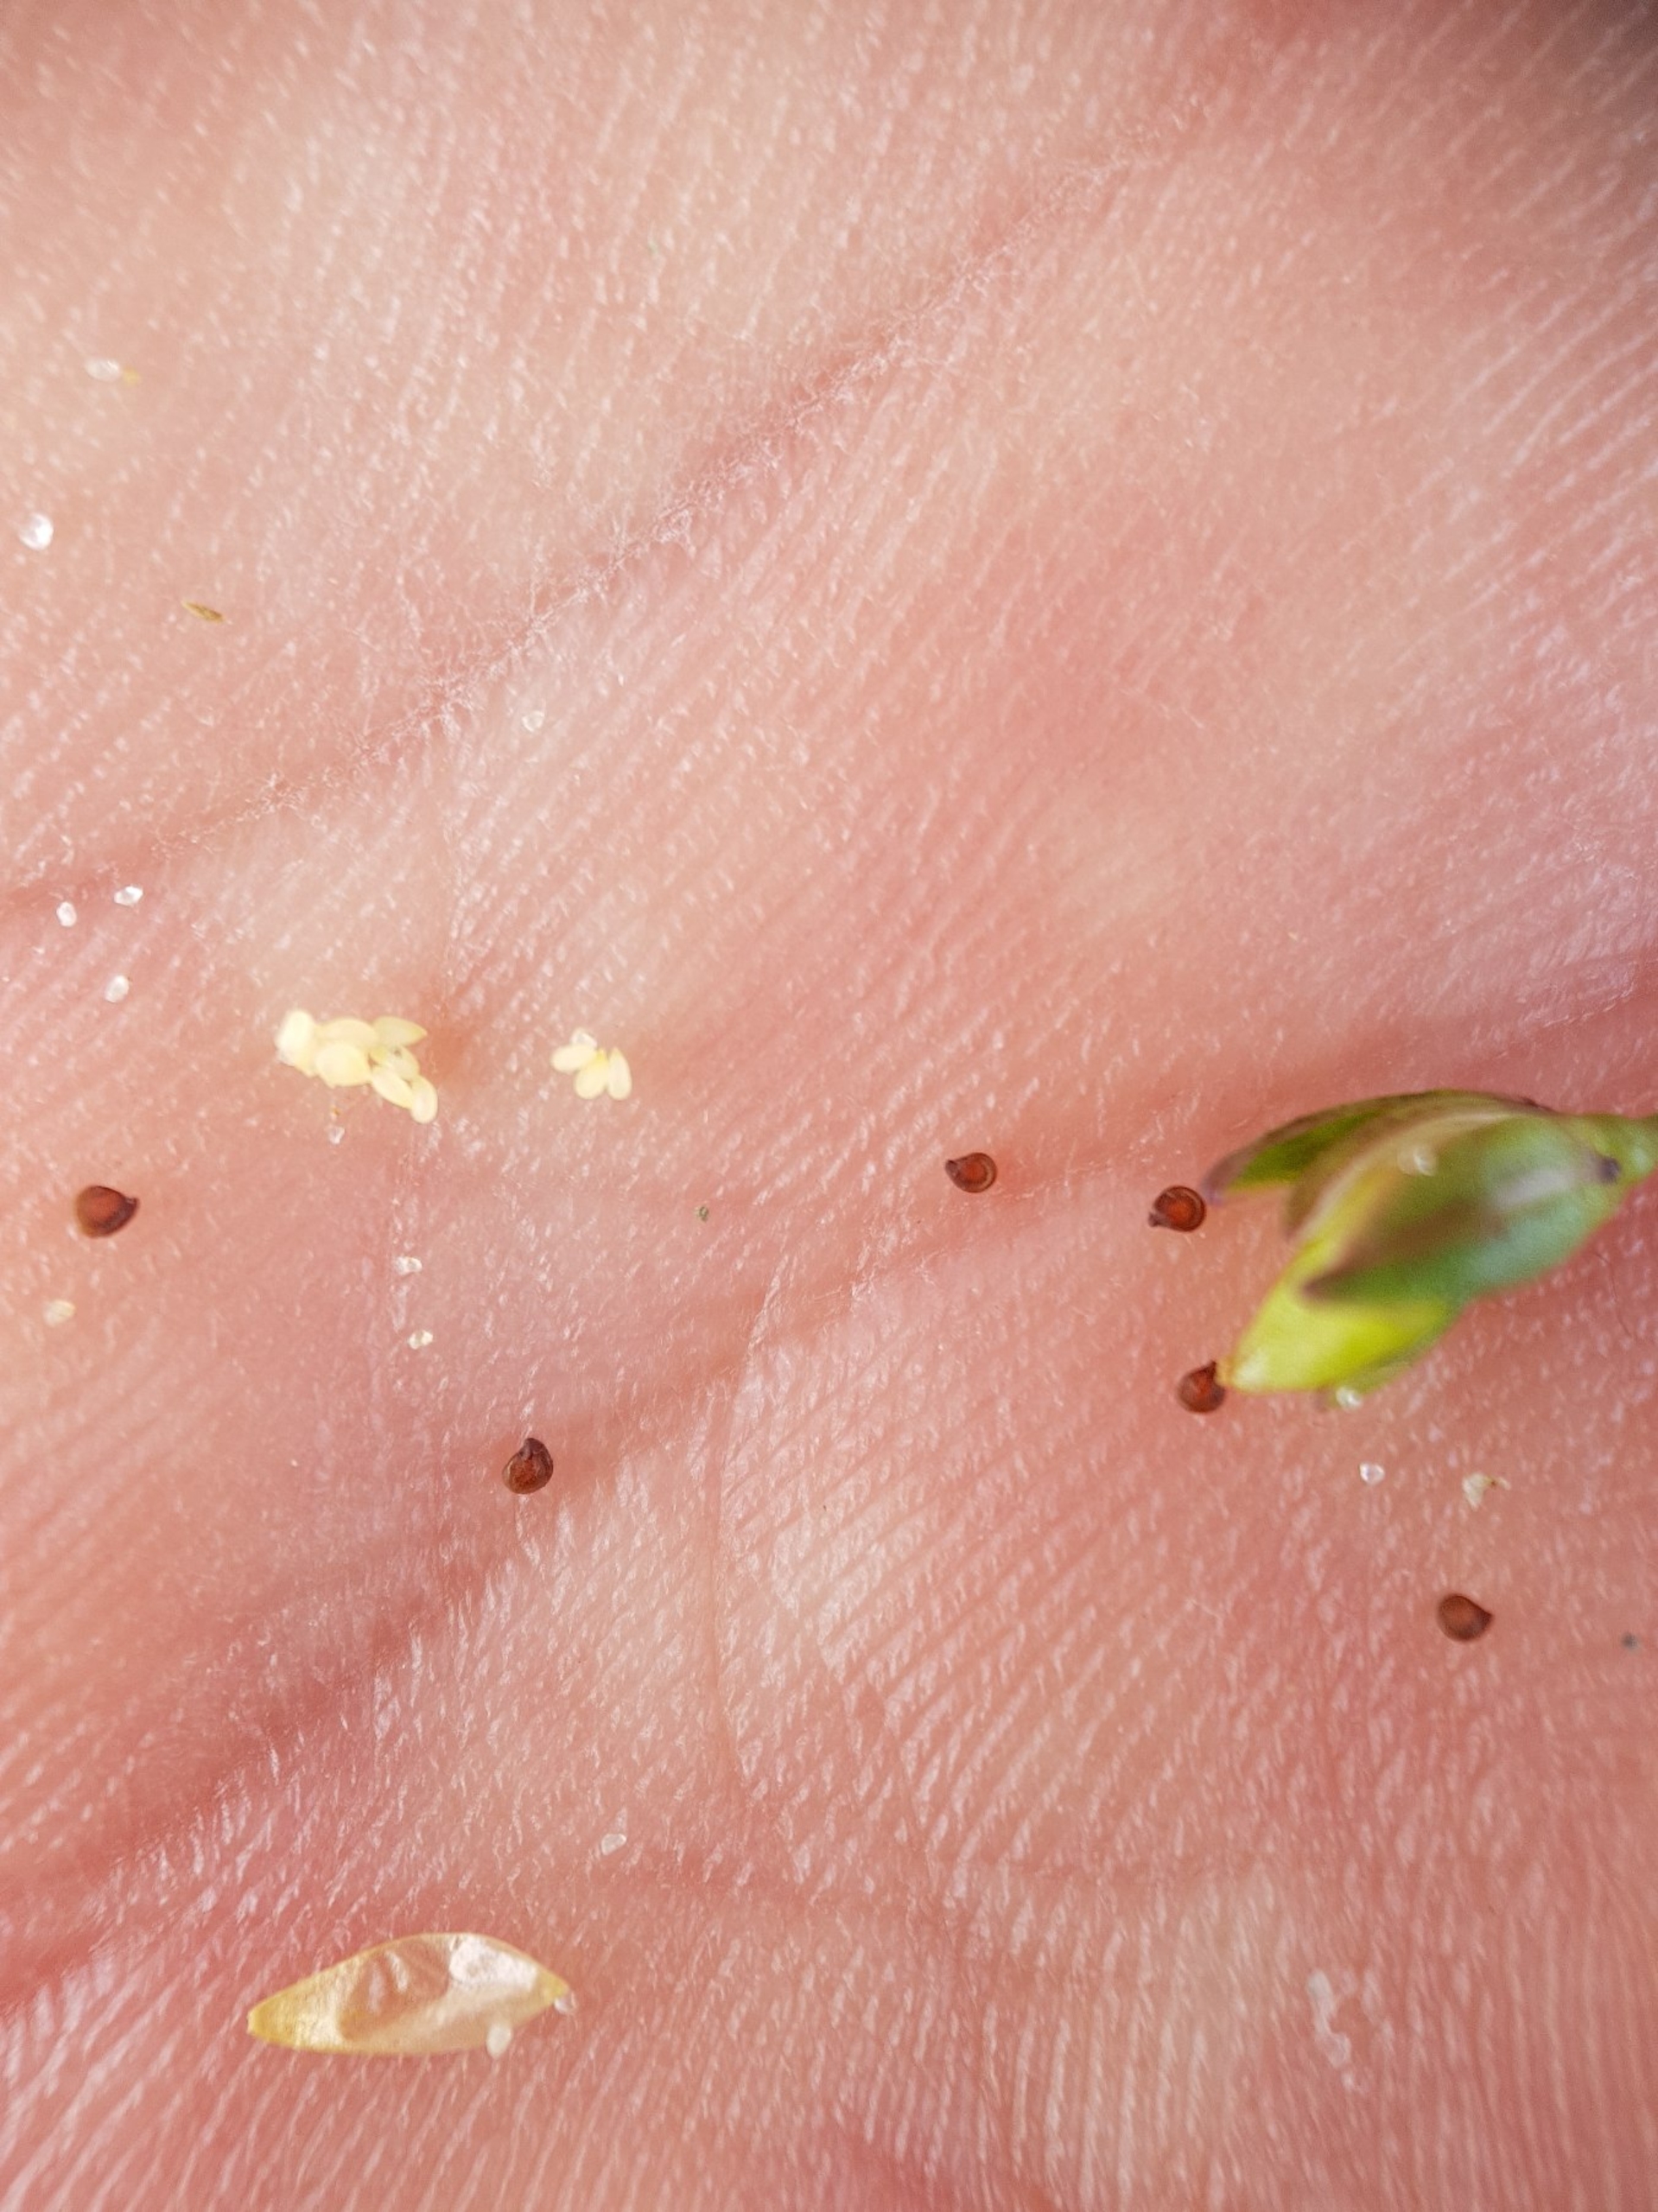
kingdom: Plantae
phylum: Tracheophyta
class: Magnoliopsida
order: Caryophyllales
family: Caryophyllaceae
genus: Spergularia
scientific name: Spergularia marina
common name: Kødet hindeknæ
